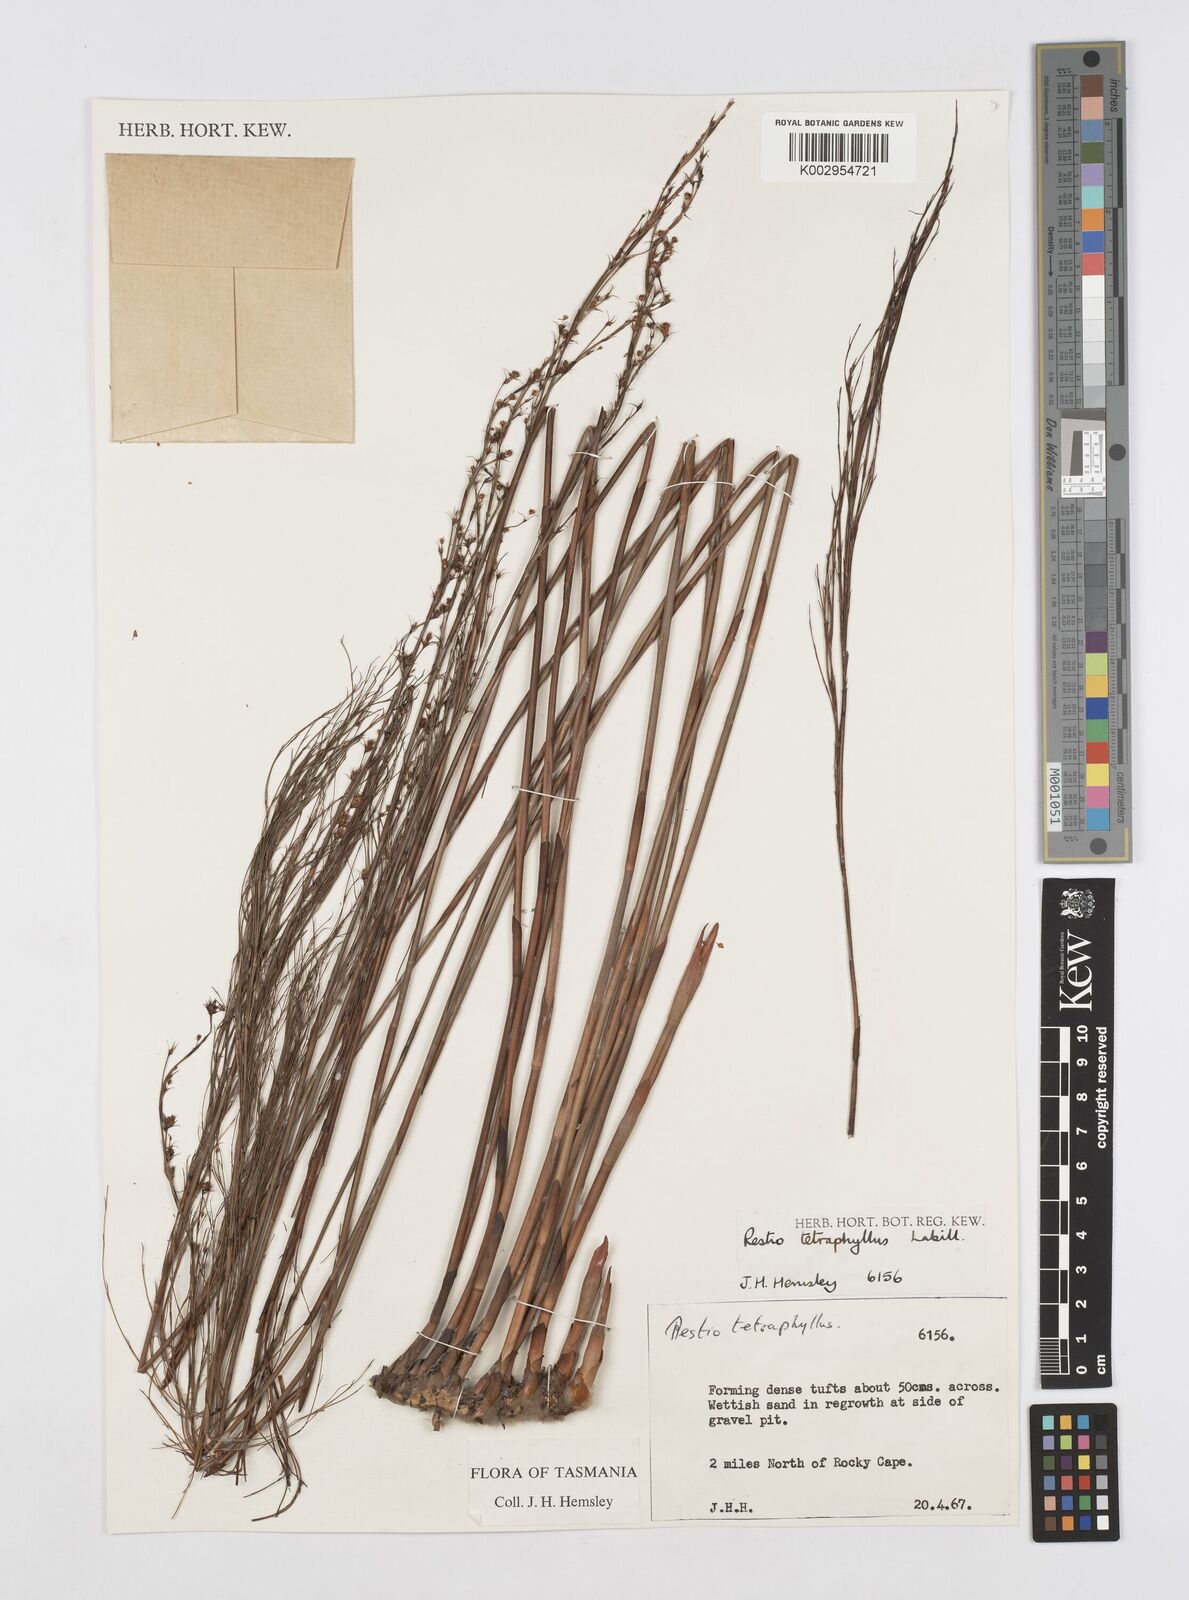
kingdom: Plantae
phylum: Tracheophyta
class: Liliopsida
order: Poales
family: Restionaceae
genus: Baloskion
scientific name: Baloskion tetraphyllum
